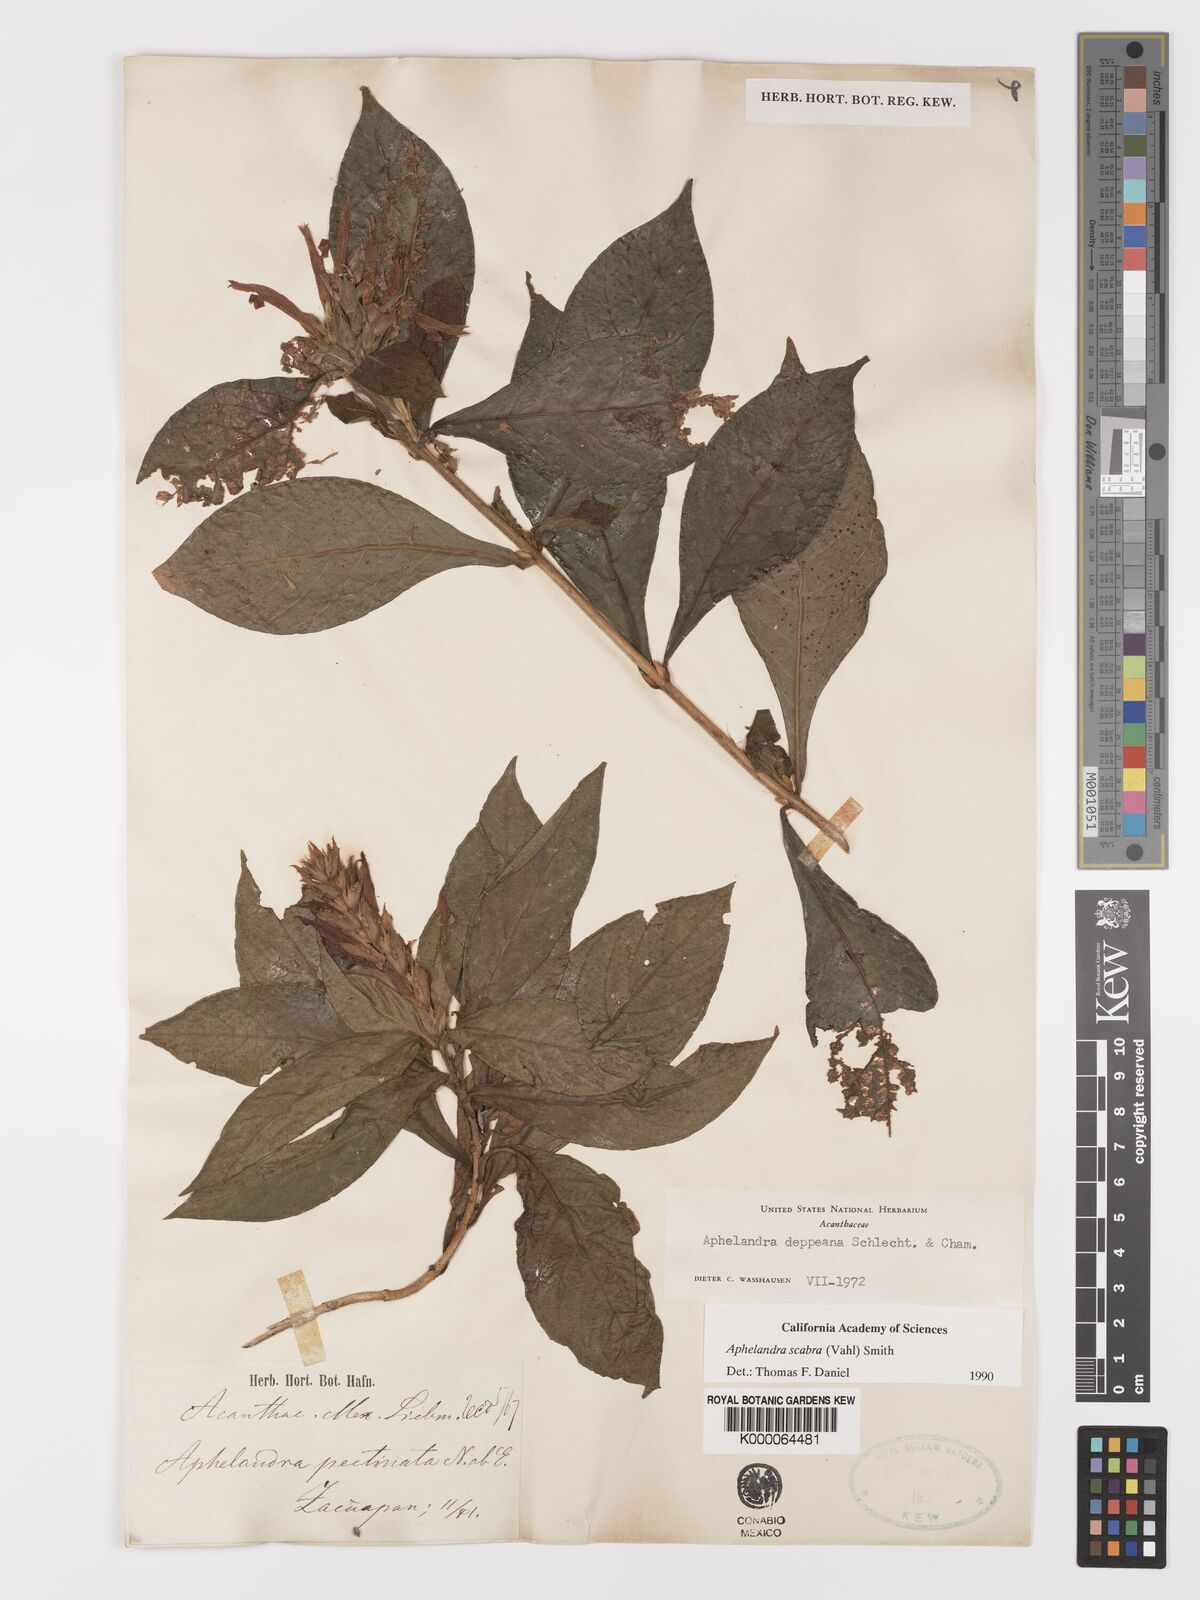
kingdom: Plantae
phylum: Tracheophyta
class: Magnoliopsida
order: Lamiales
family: Acanthaceae
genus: Aphelandra
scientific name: Aphelandra scabra
